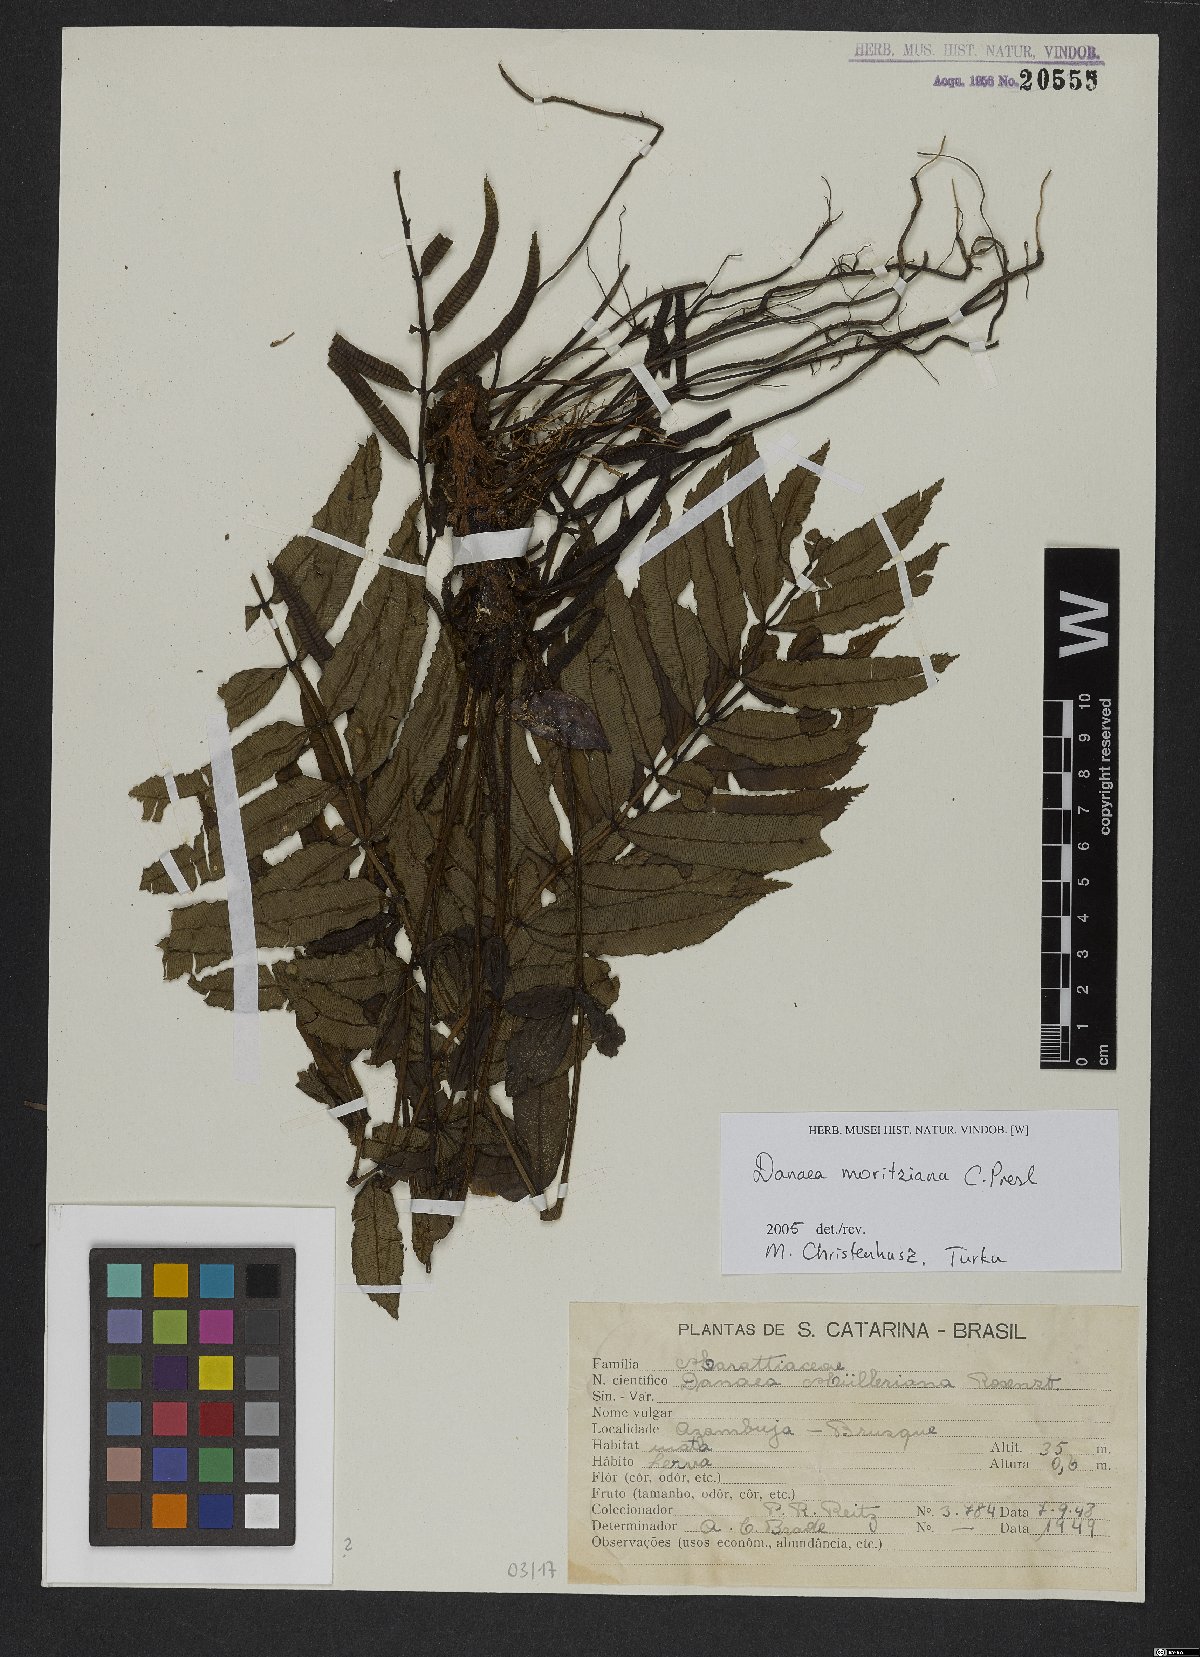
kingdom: Plantae
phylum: Tracheophyta
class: Polypodiopsida
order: Marattiales
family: Marattiaceae
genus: Danaea
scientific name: Danaea moritziana
